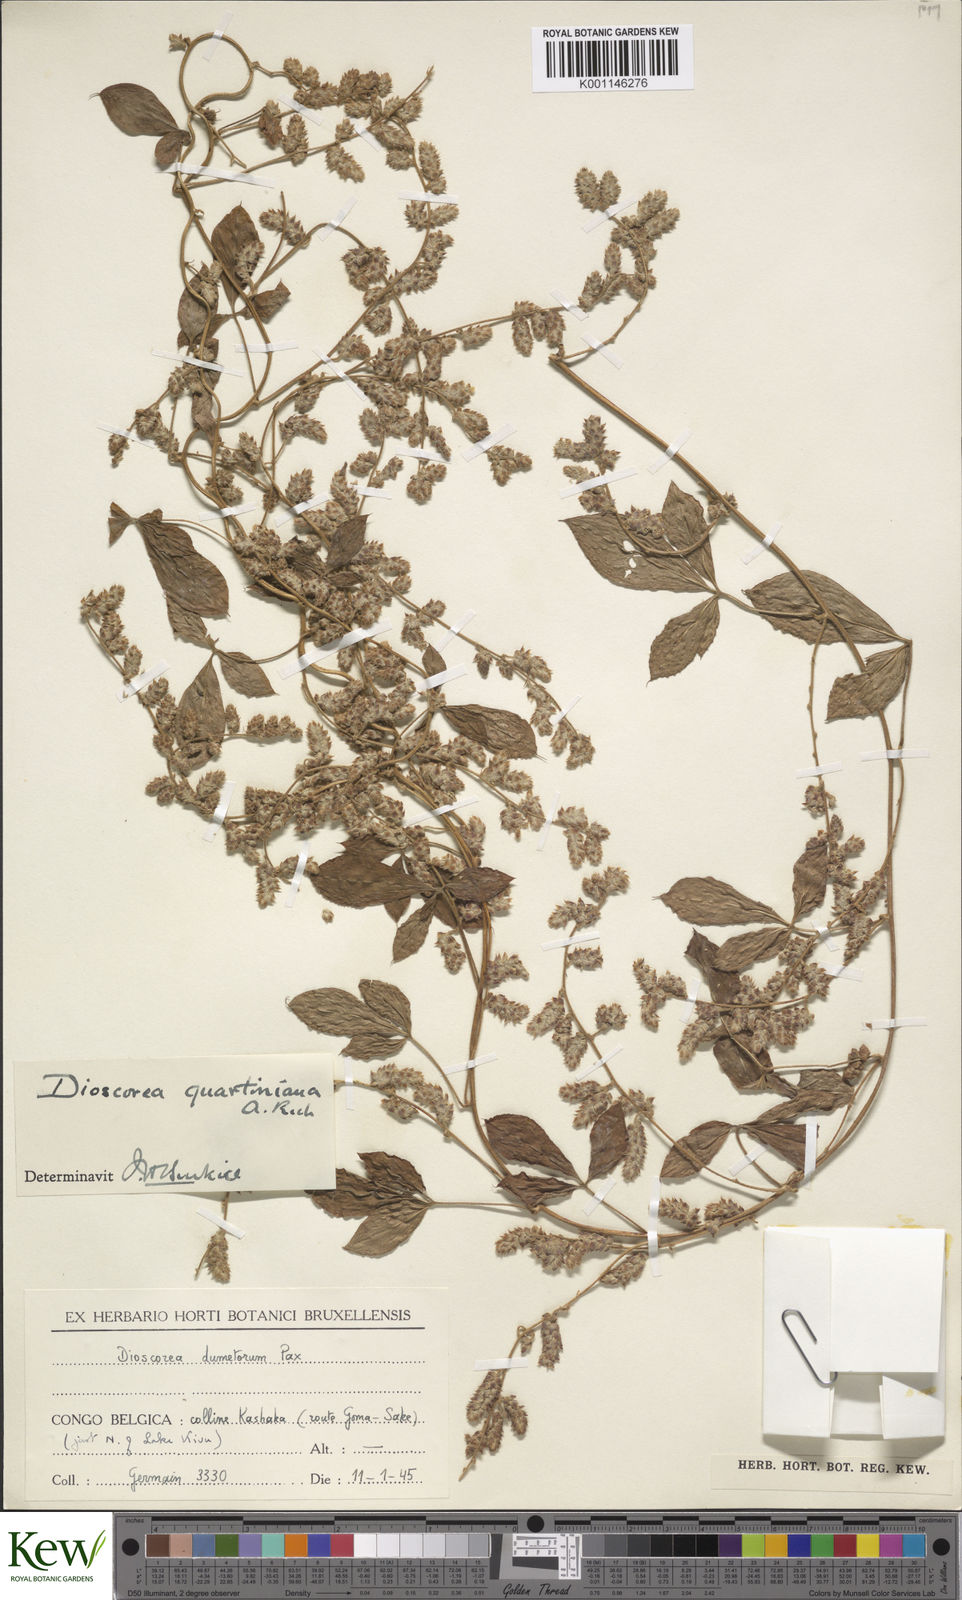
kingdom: Plantae
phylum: Tracheophyta
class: Liliopsida
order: Dioscoreales
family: Dioscoreaceae
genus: Dioscorea
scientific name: Dioscorea quartiniana
